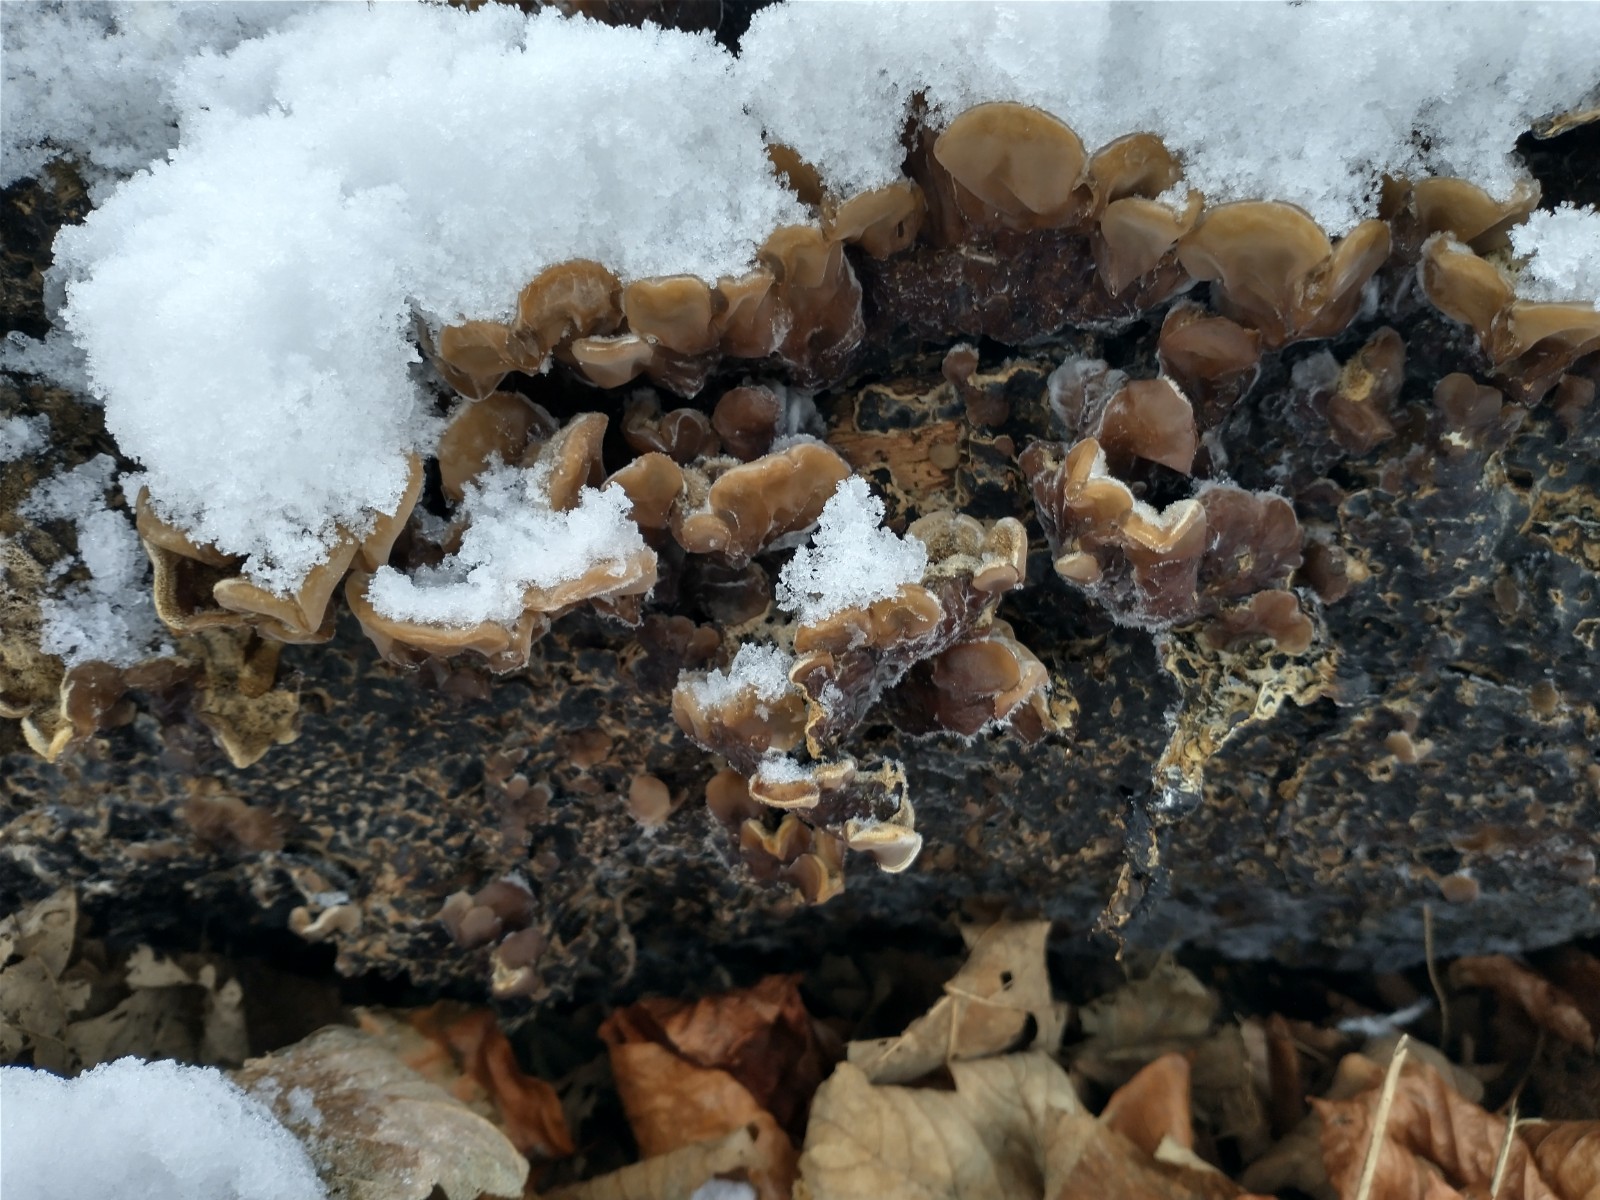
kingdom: Fungi
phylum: Basidiomycota
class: Agaricomycetes
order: Auriculariales
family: Auriculariaceae
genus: Auricularia
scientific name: Auricularia mesenterica
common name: håret judasøre
